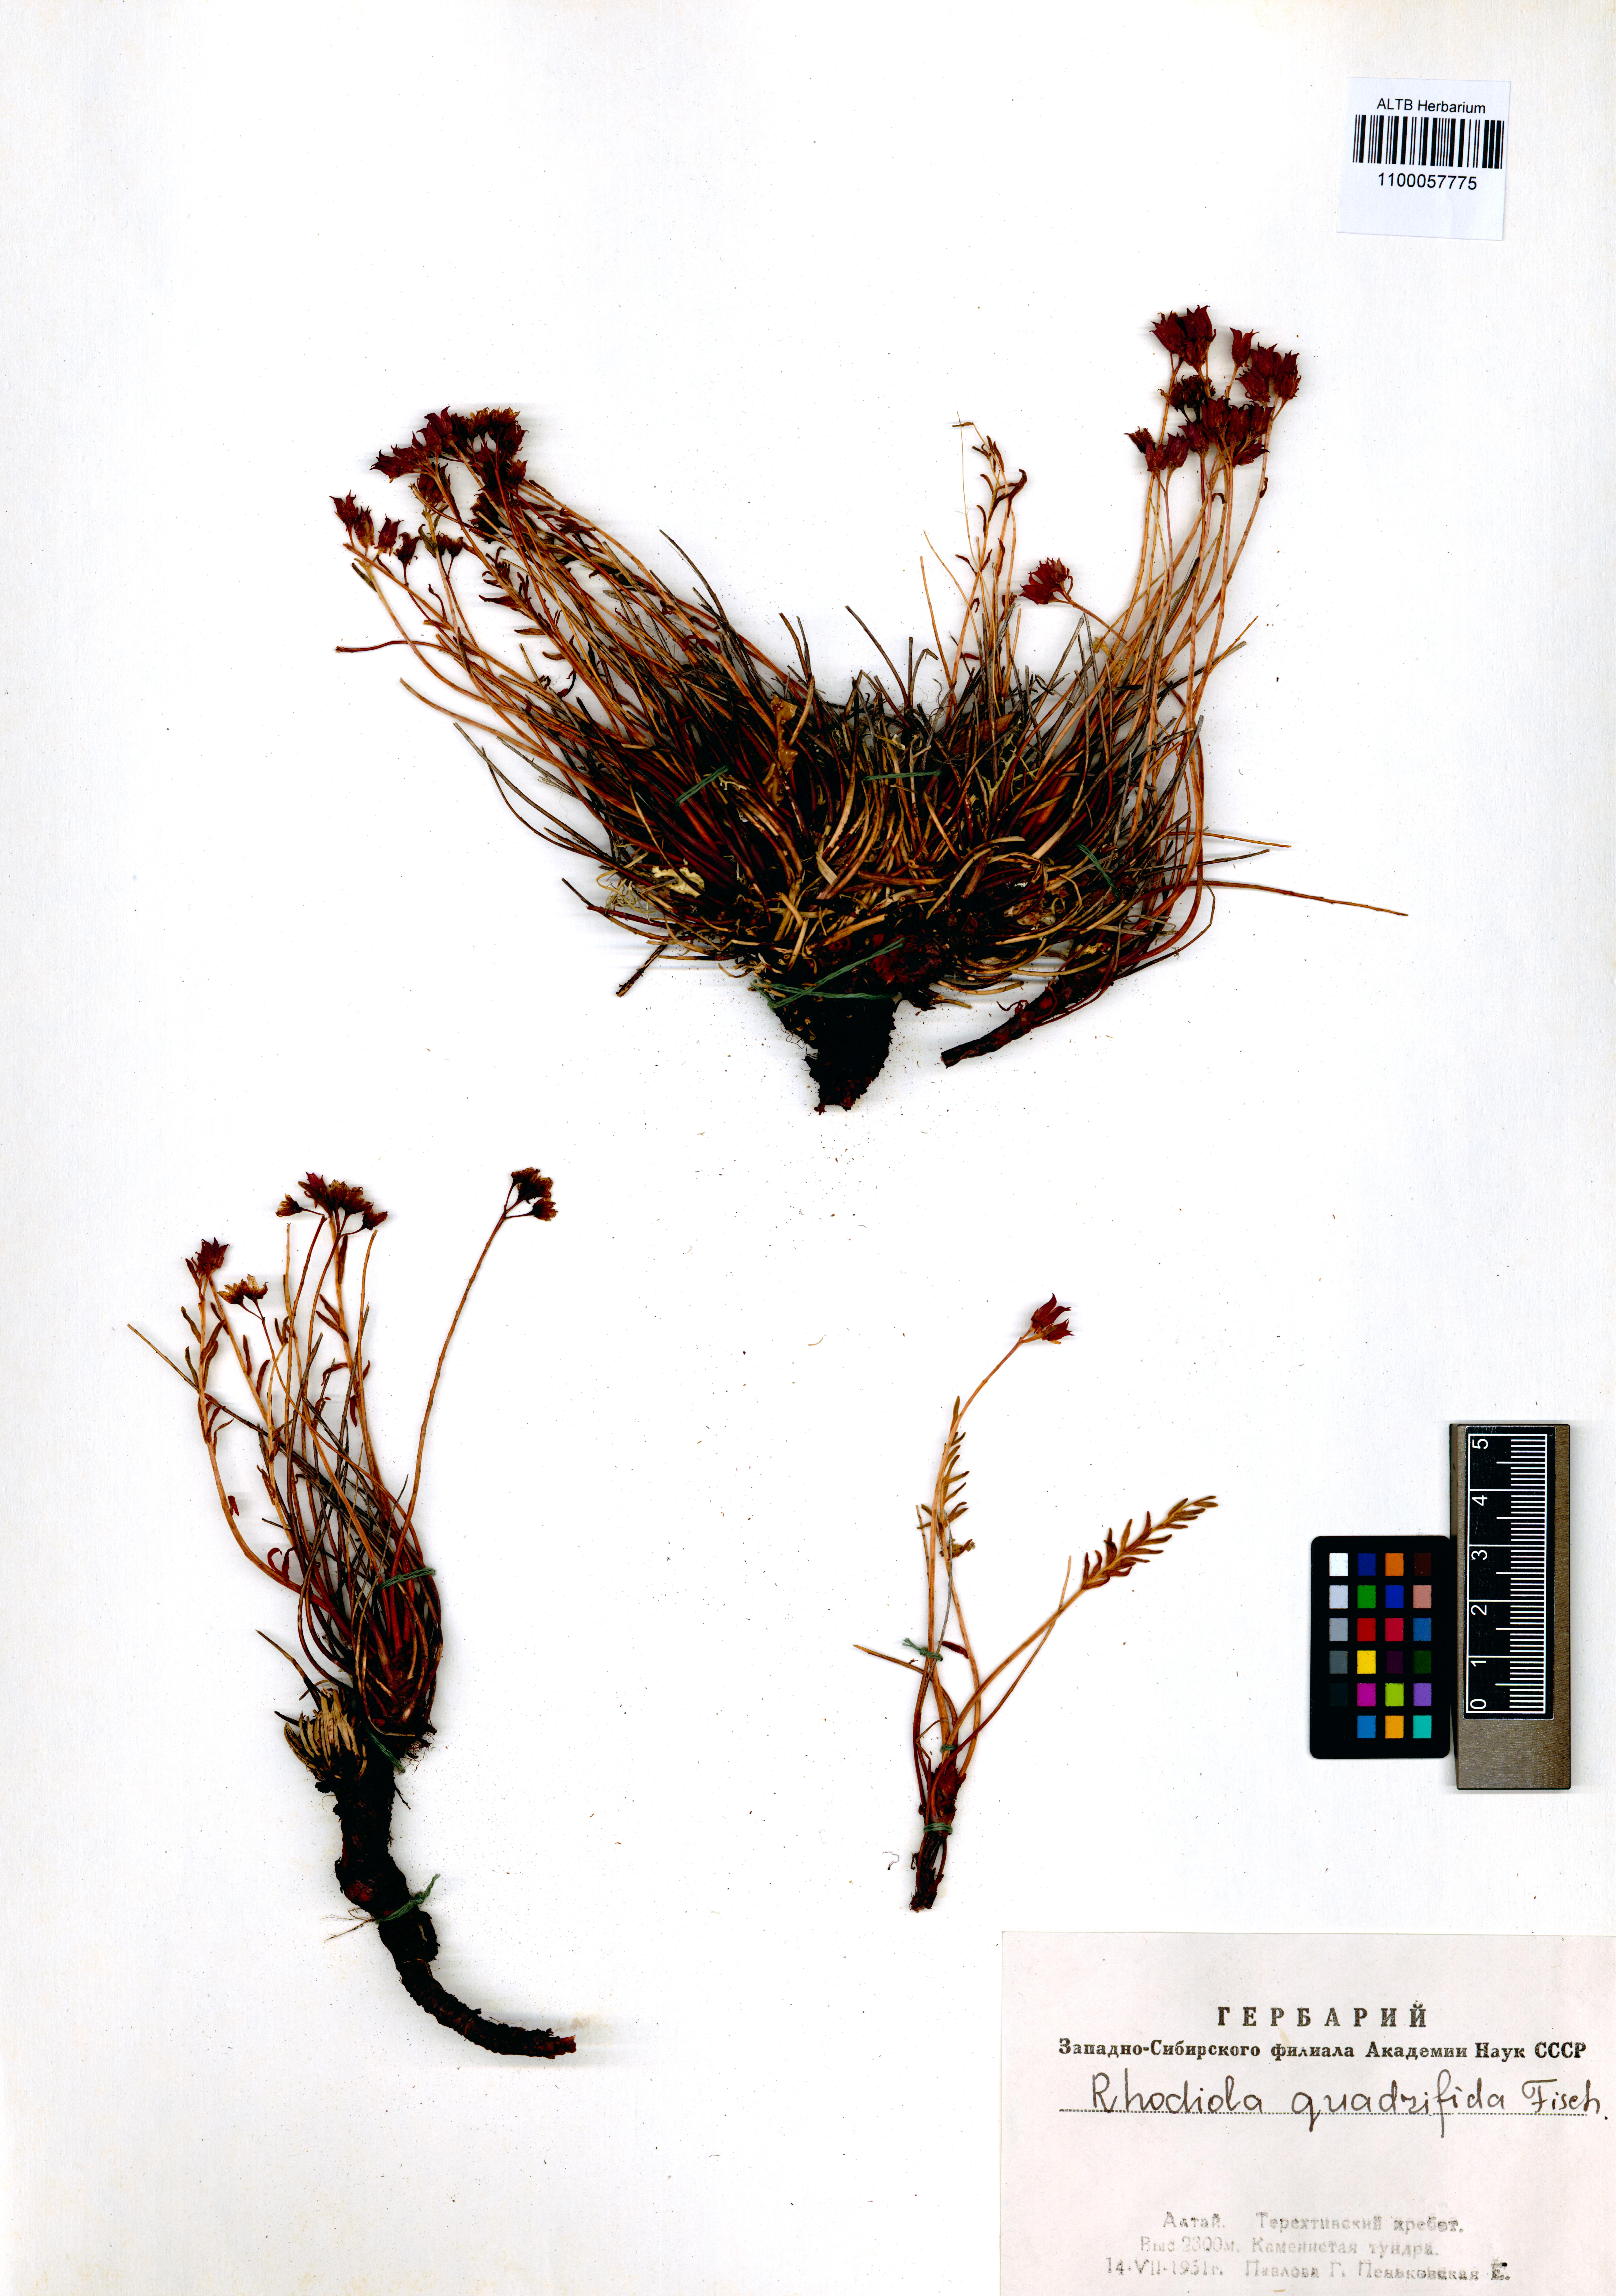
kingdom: Plantae
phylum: Tracheophyta
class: Magnoliopsida
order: Saxifragales
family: Crassulaceae
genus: Rhodiola
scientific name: Rhodiola quadrifida
